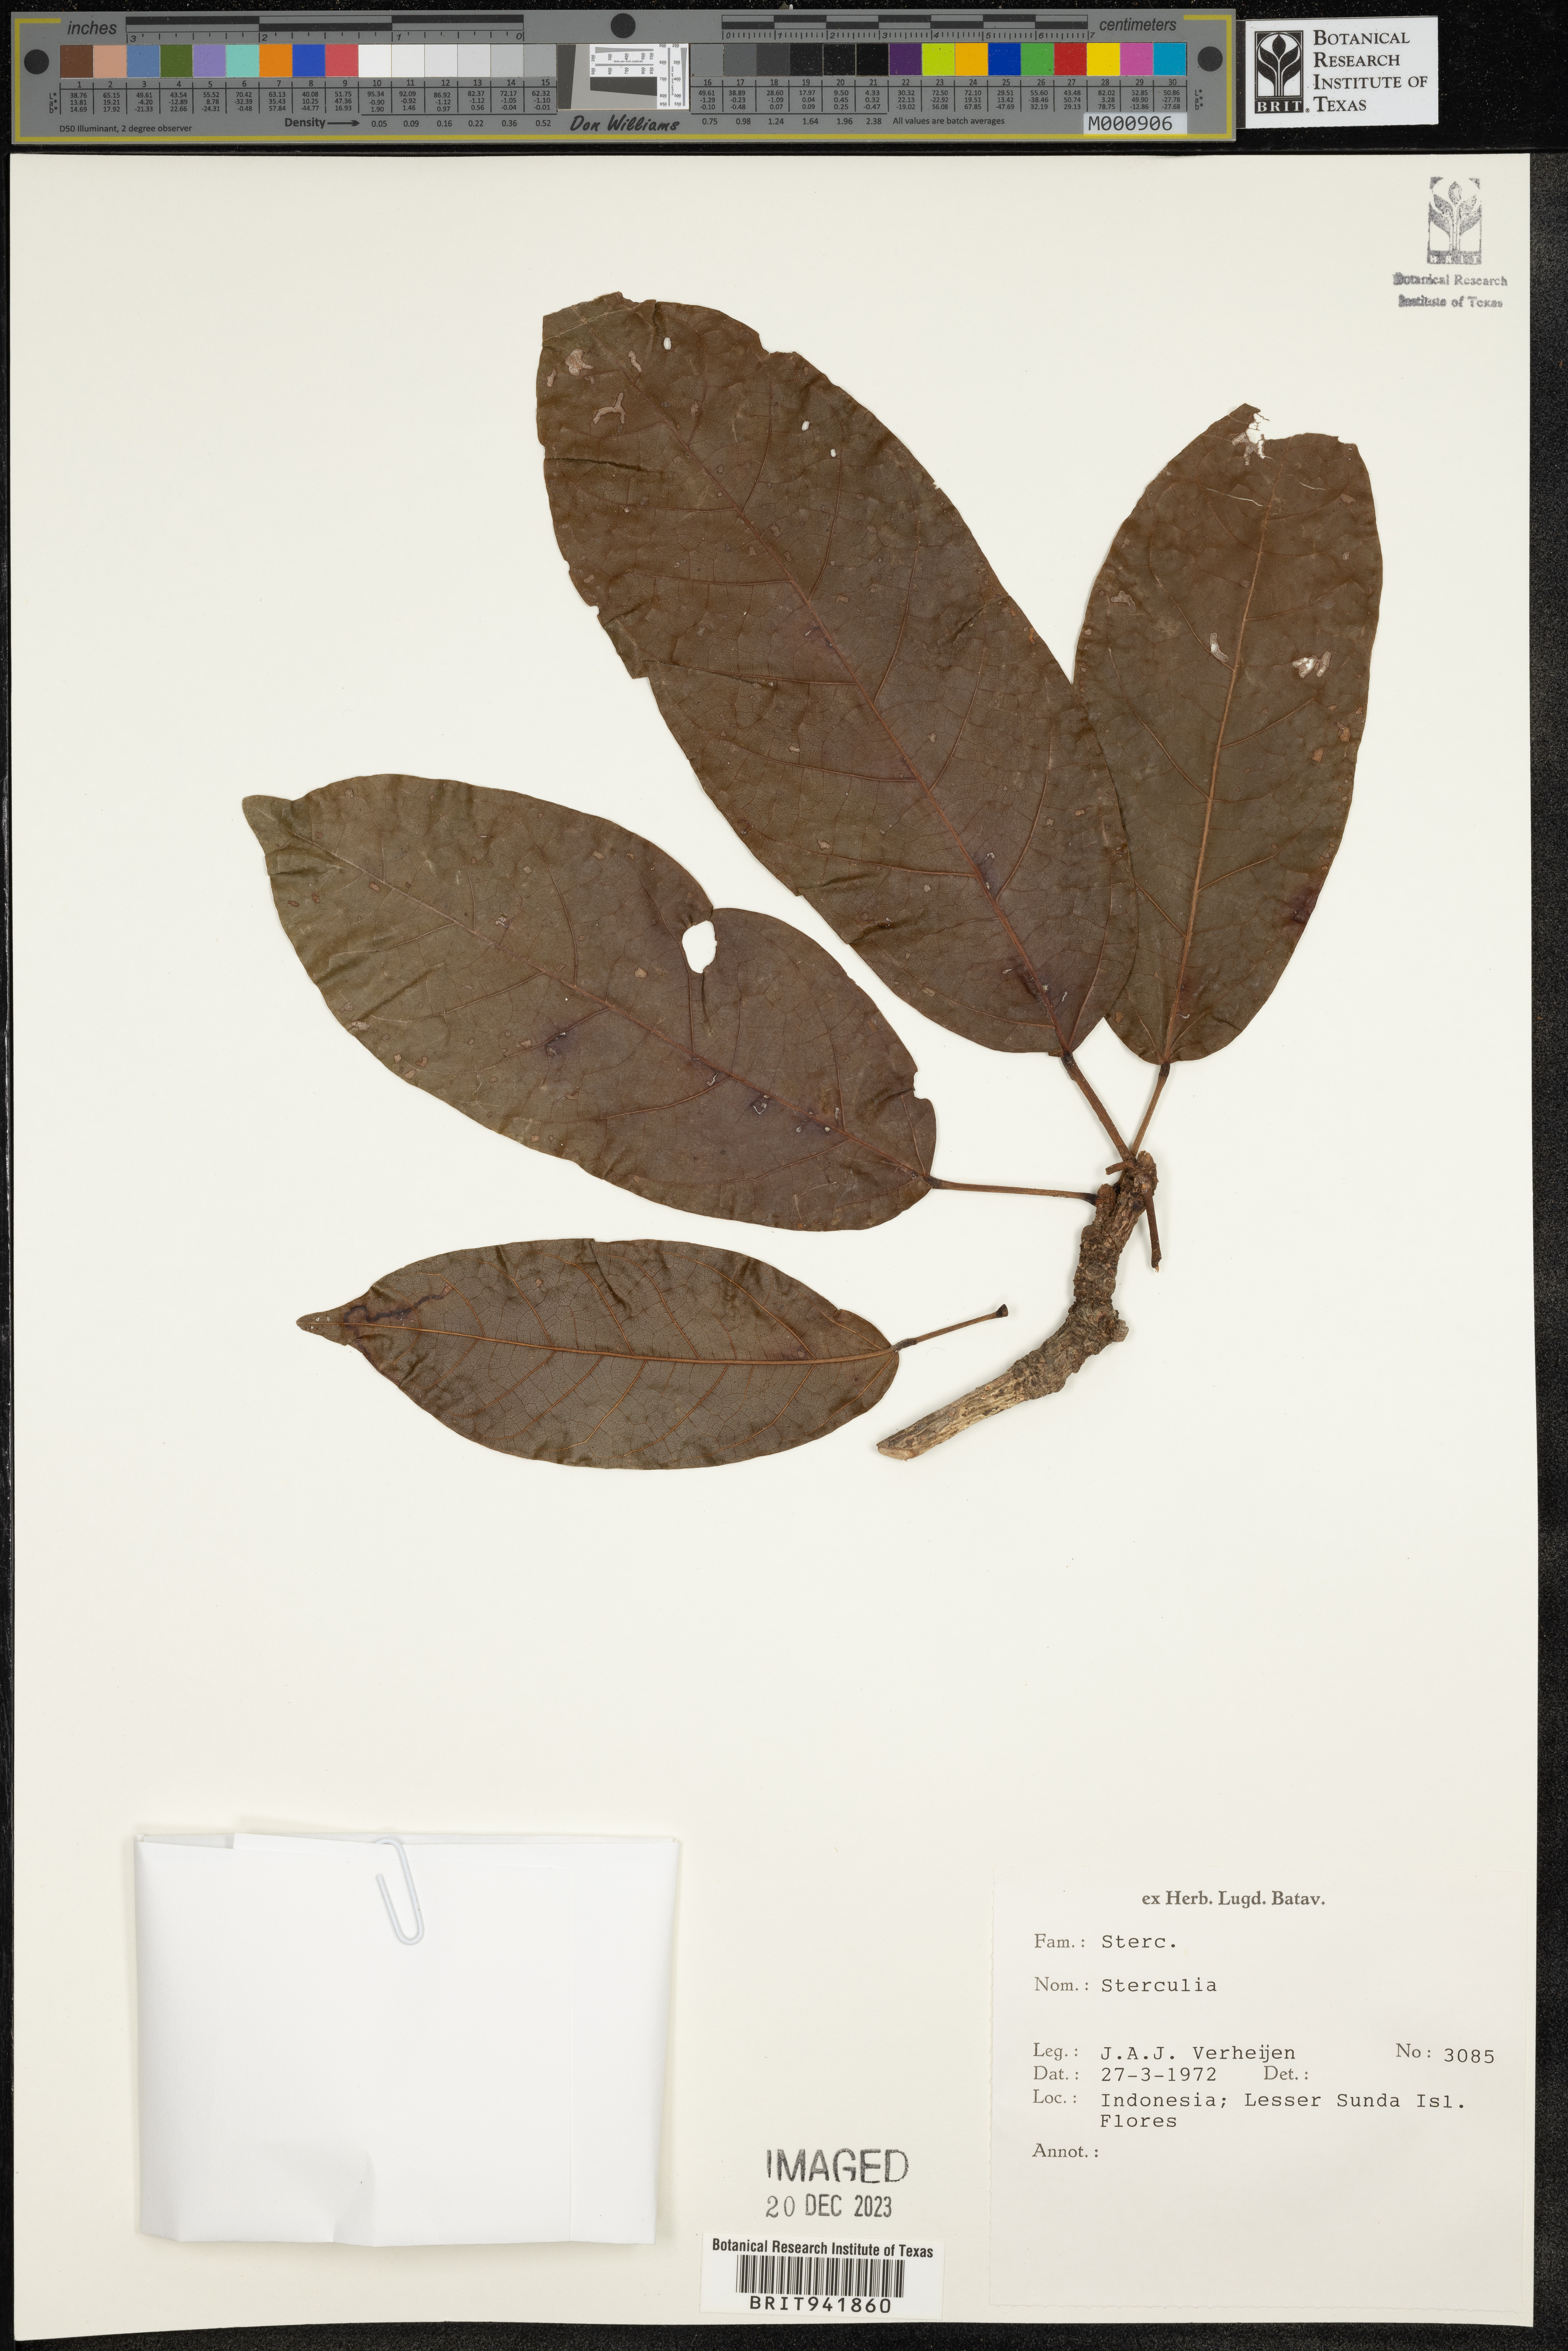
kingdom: Plantae
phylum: Tracheophyta
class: Magnoliopsida
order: Malvales
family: Malvaceae
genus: Sterculia
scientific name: Sterculia
